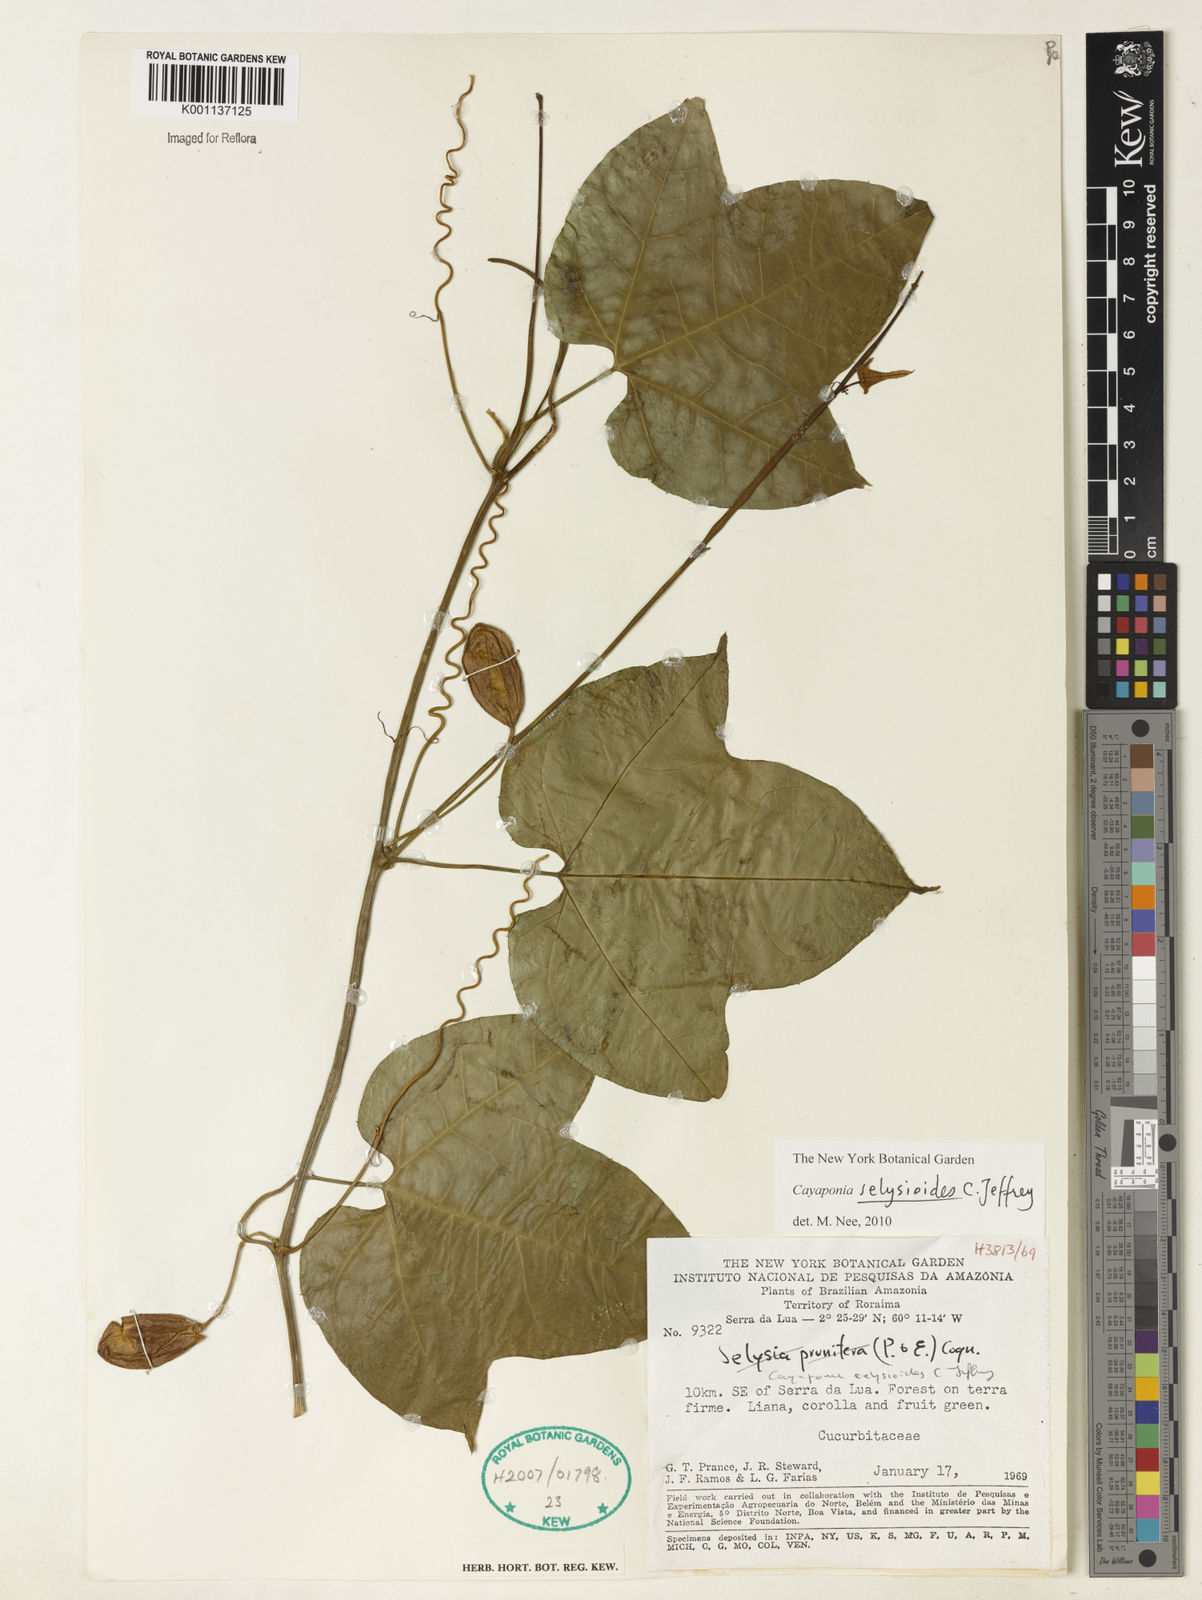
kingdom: Plantae
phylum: Tracheophyta
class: Magnoliopsida
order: Cucurbitales
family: Cucurbitaceae
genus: Cayaponia
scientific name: Cayaponia selysioides
